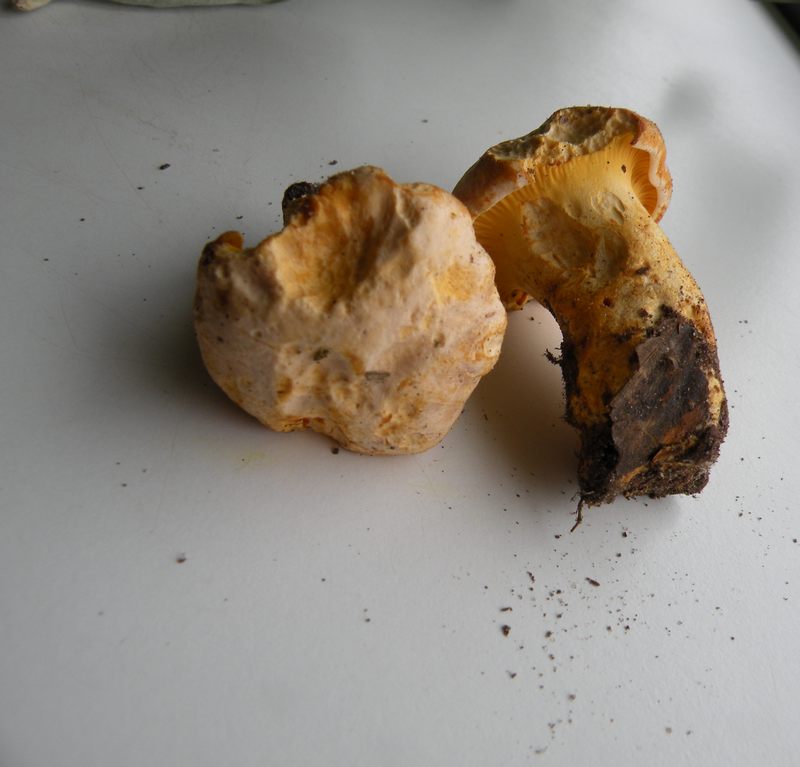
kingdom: Fungi
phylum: Basidiomycota
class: Agaricomycetes
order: Cantharellales
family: Hydnaceae
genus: Cantharellus
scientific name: Cantharellus pallens
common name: bleg kantarel
